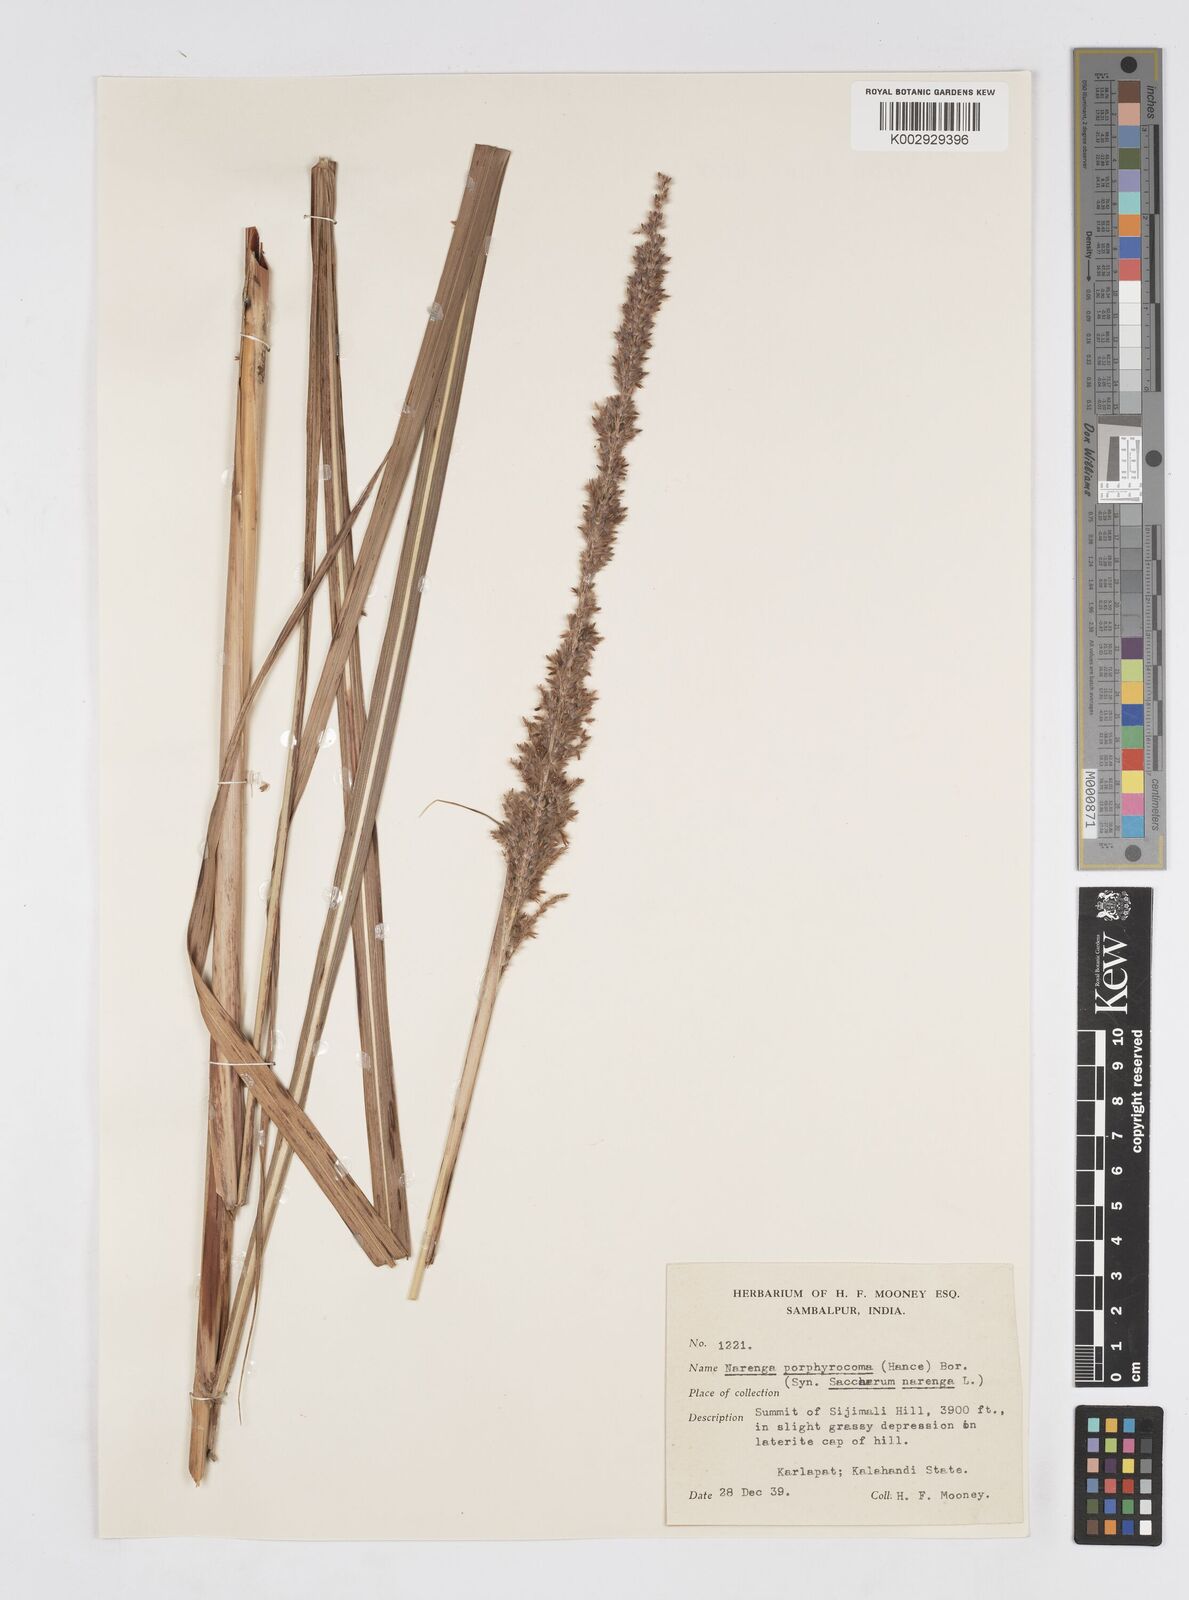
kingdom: Plantae
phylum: Tracheophyta
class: Liliopsida
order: Poales
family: Poaceae
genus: Narenga
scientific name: Narenga porphyrocoma
